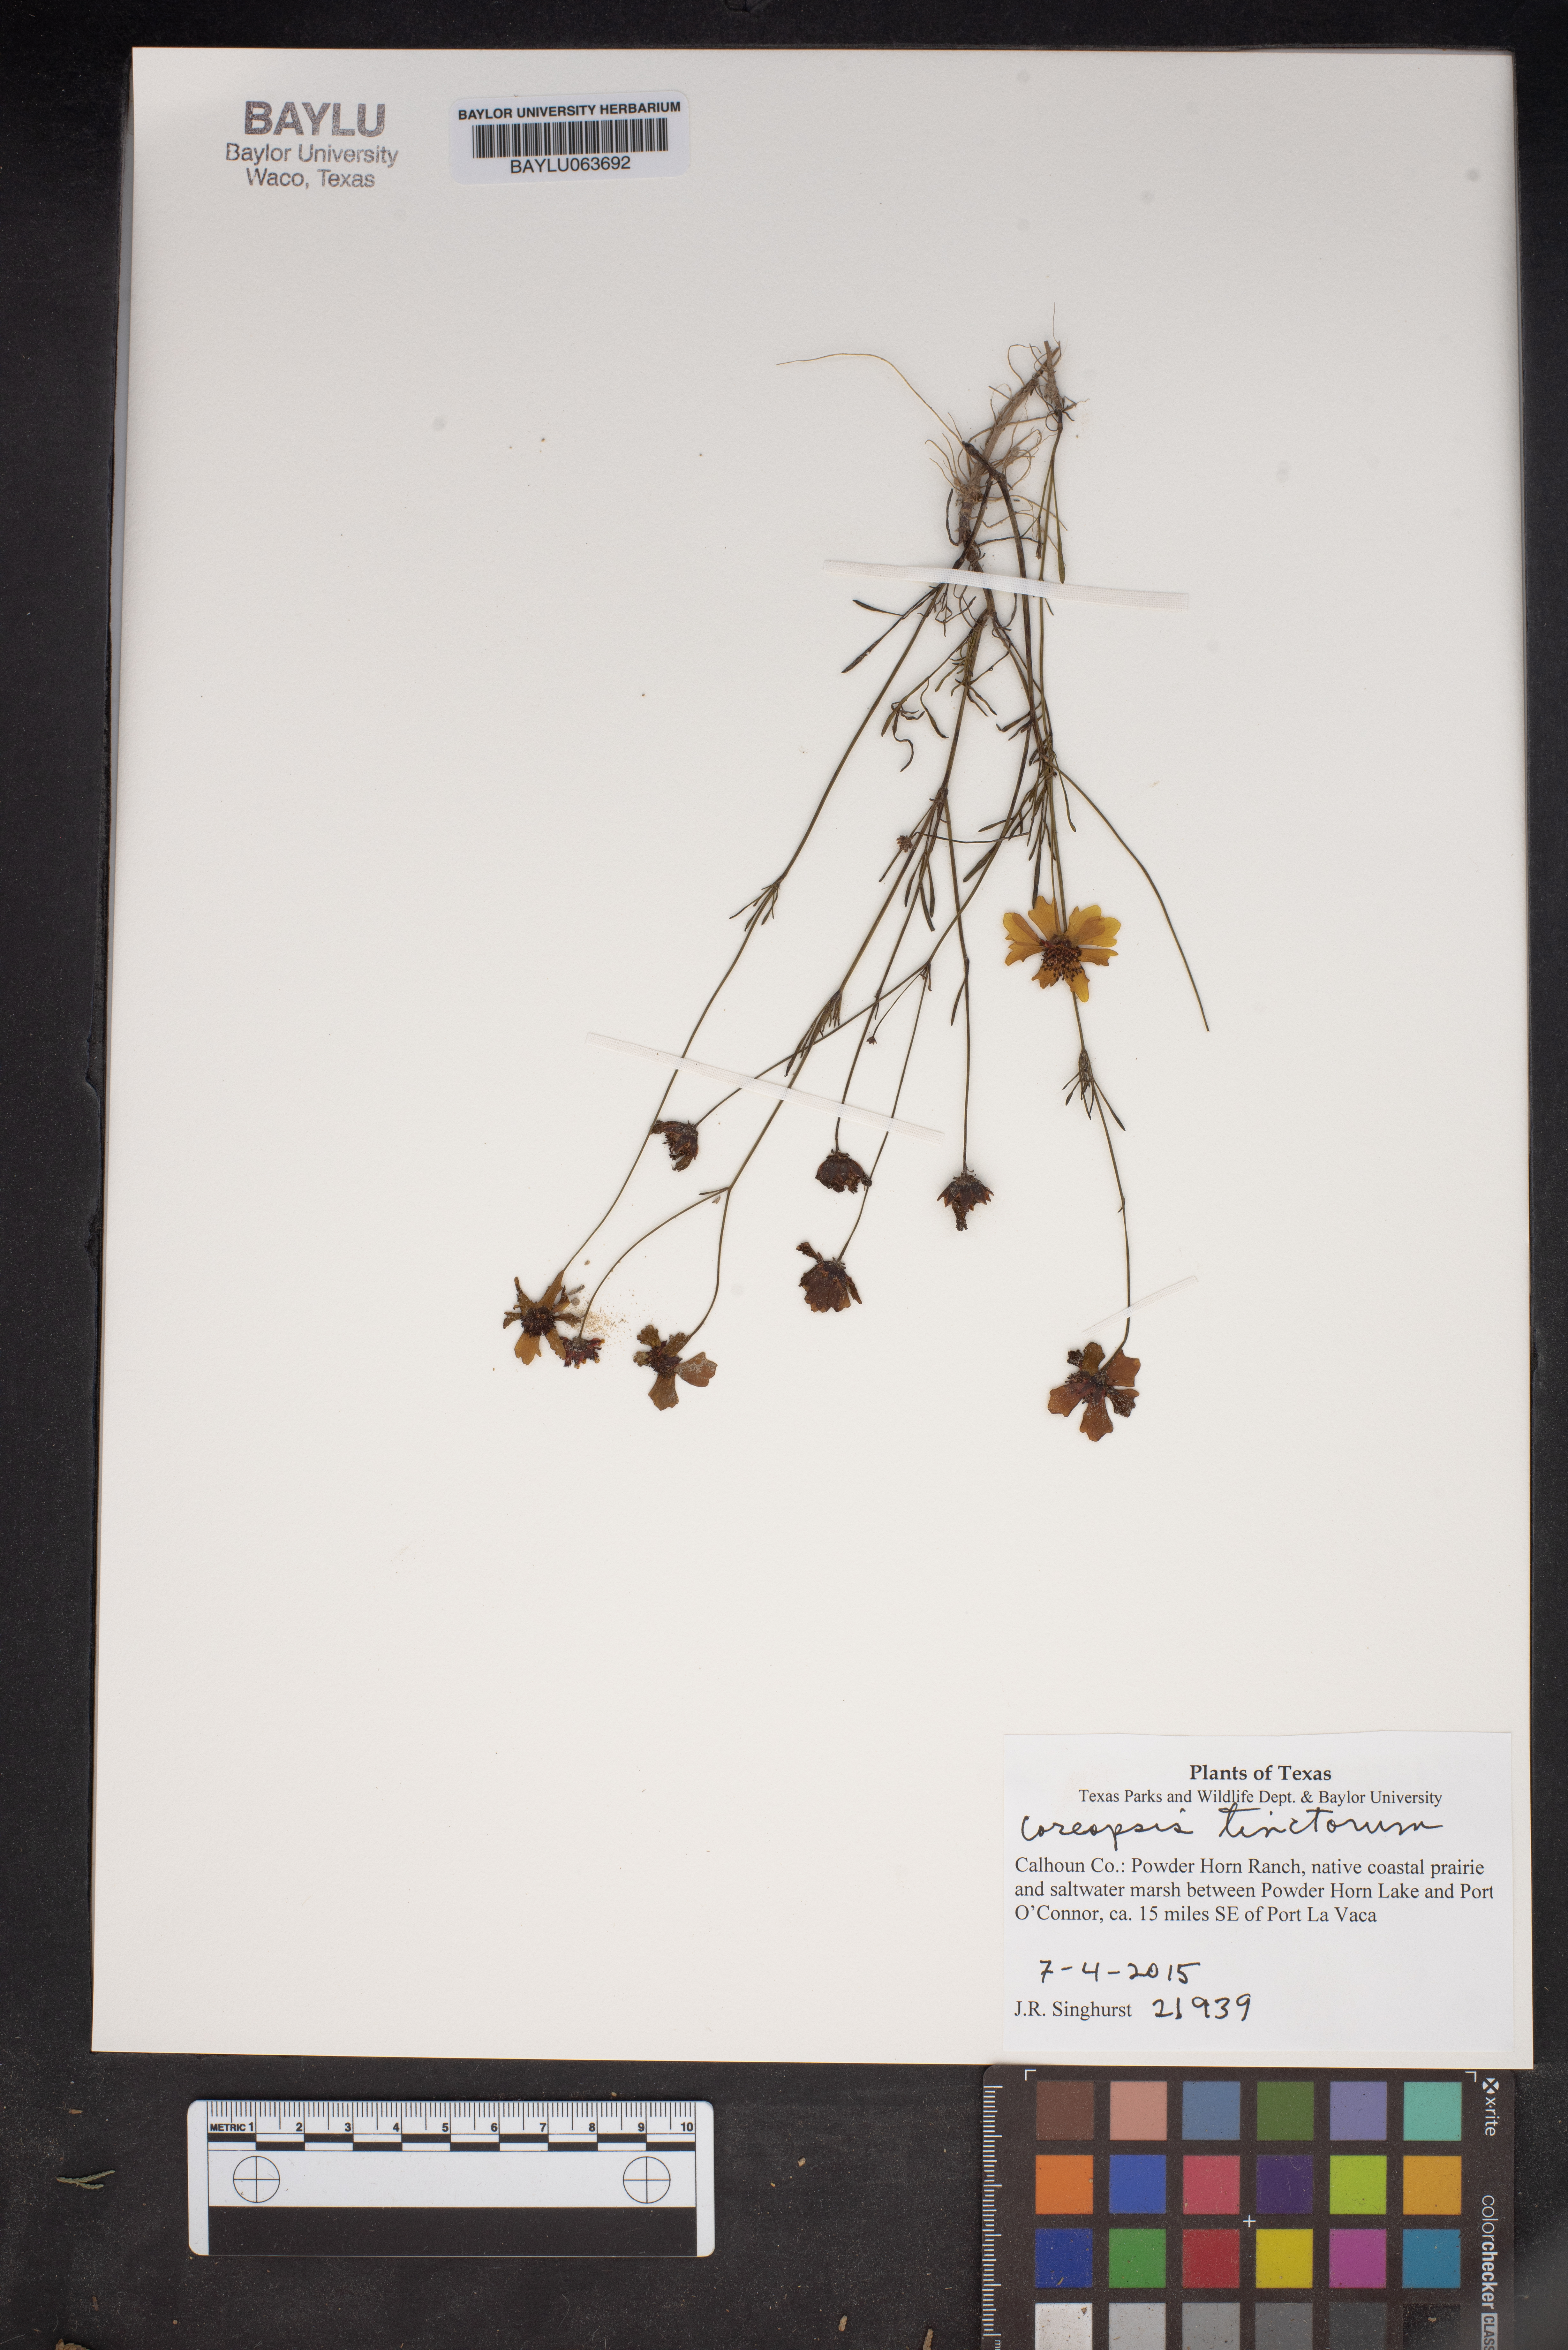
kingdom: Plantae
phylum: Tracheophyta
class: Magnoliopsida
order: Asterales
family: Asteraceae
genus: Coreopsis
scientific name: Coreopsis tinctoria
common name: Garden tickseed
